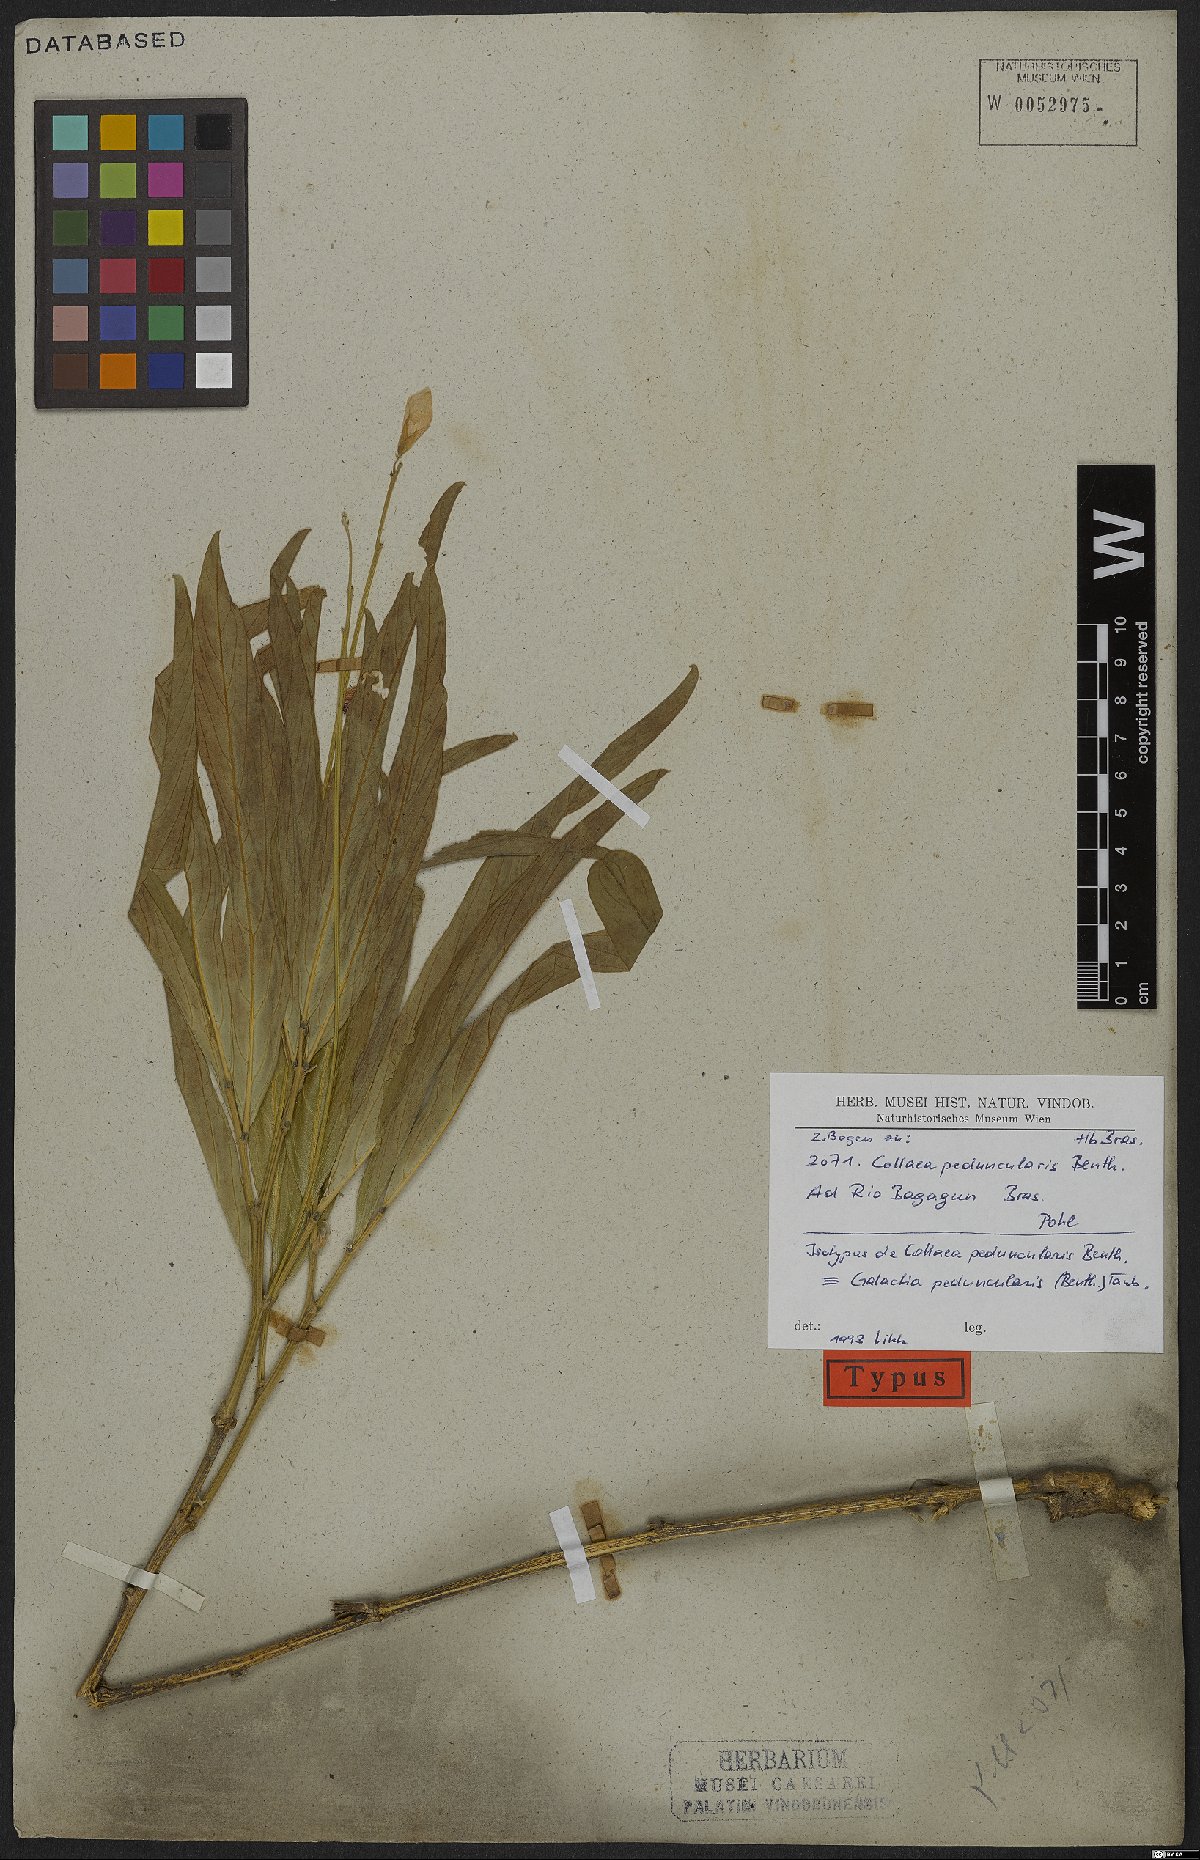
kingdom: Plantae
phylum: Tracheophyta
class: Magnoliopsida
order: Fabales
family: Fabaceae
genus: Cerradicola
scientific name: Cerradicola peduncularis
